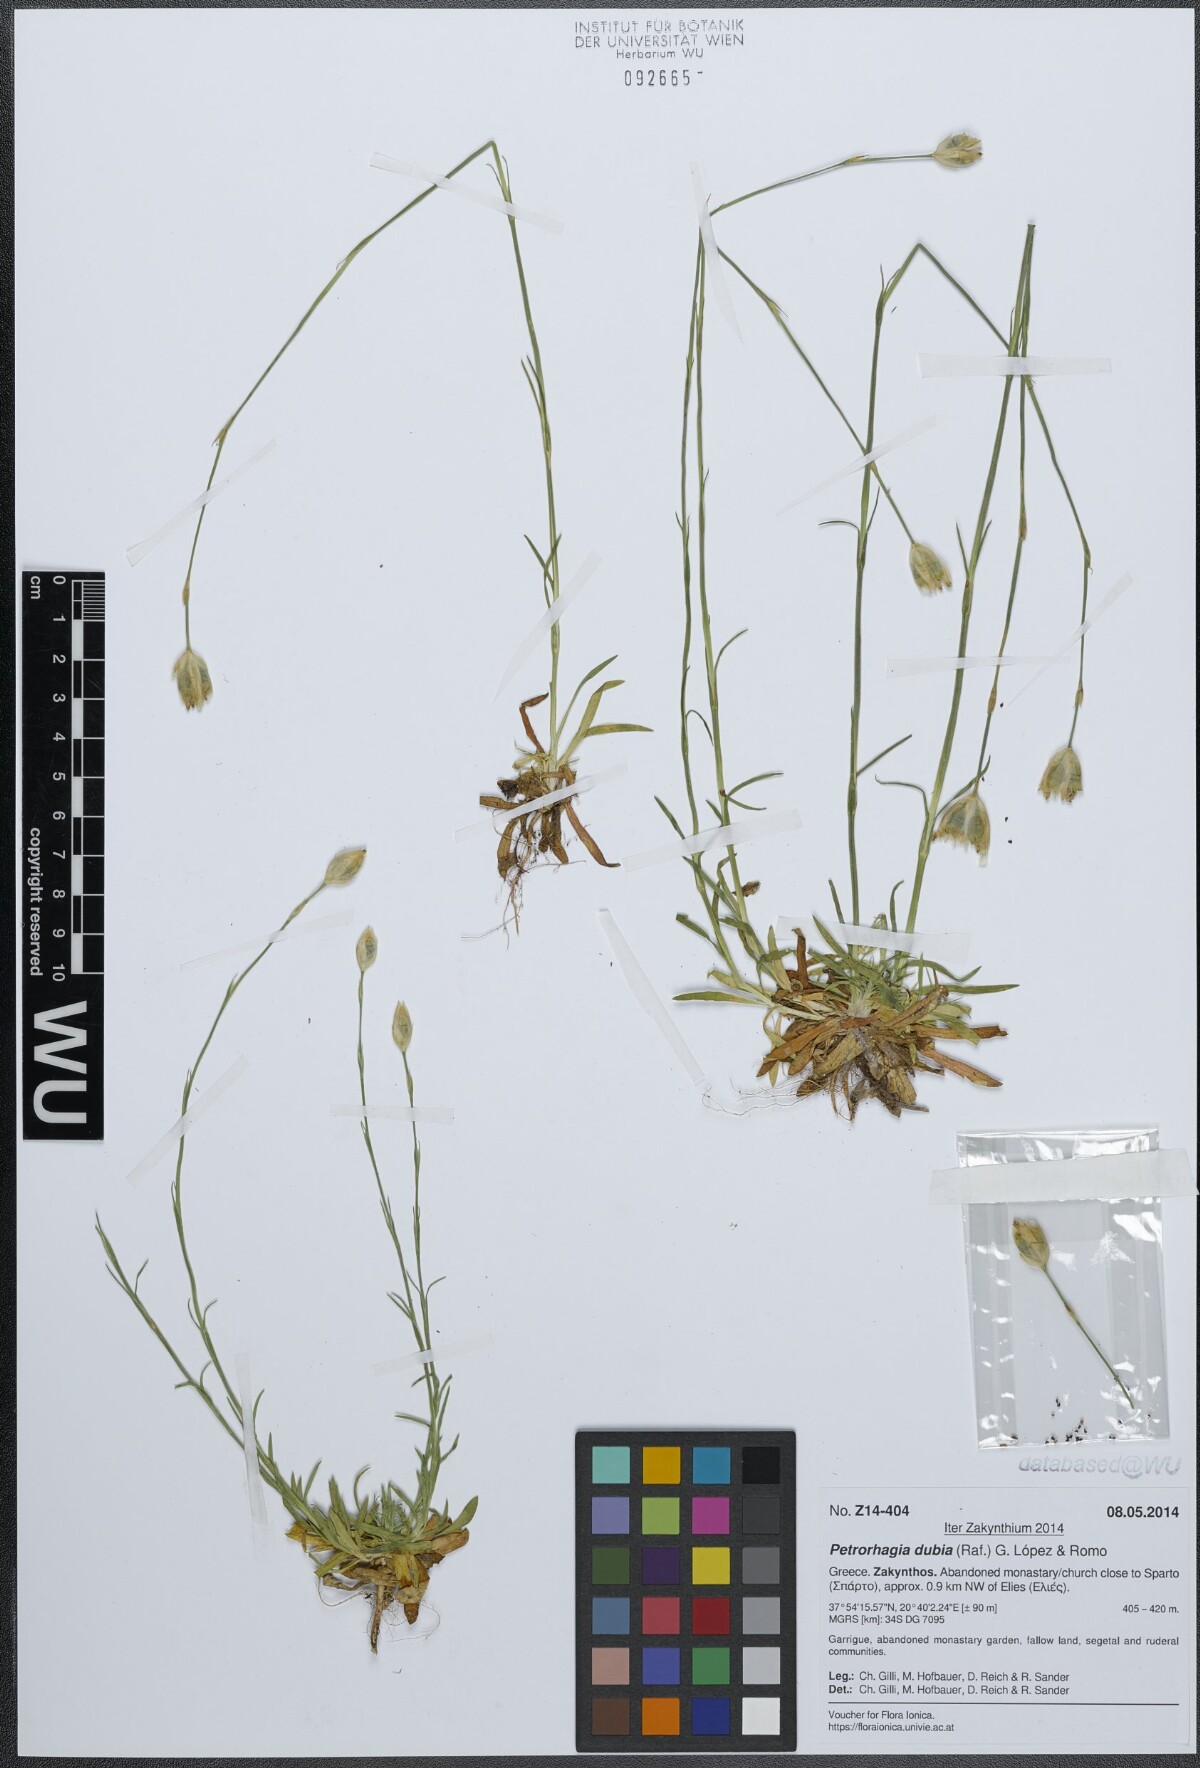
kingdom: Plantae
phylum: Tracheophyta
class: Magnoliopsida
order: Caryophyllales
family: Caryophyllaceae
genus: Petrorhagia
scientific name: Petrorhagia dubia
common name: Hairypink
